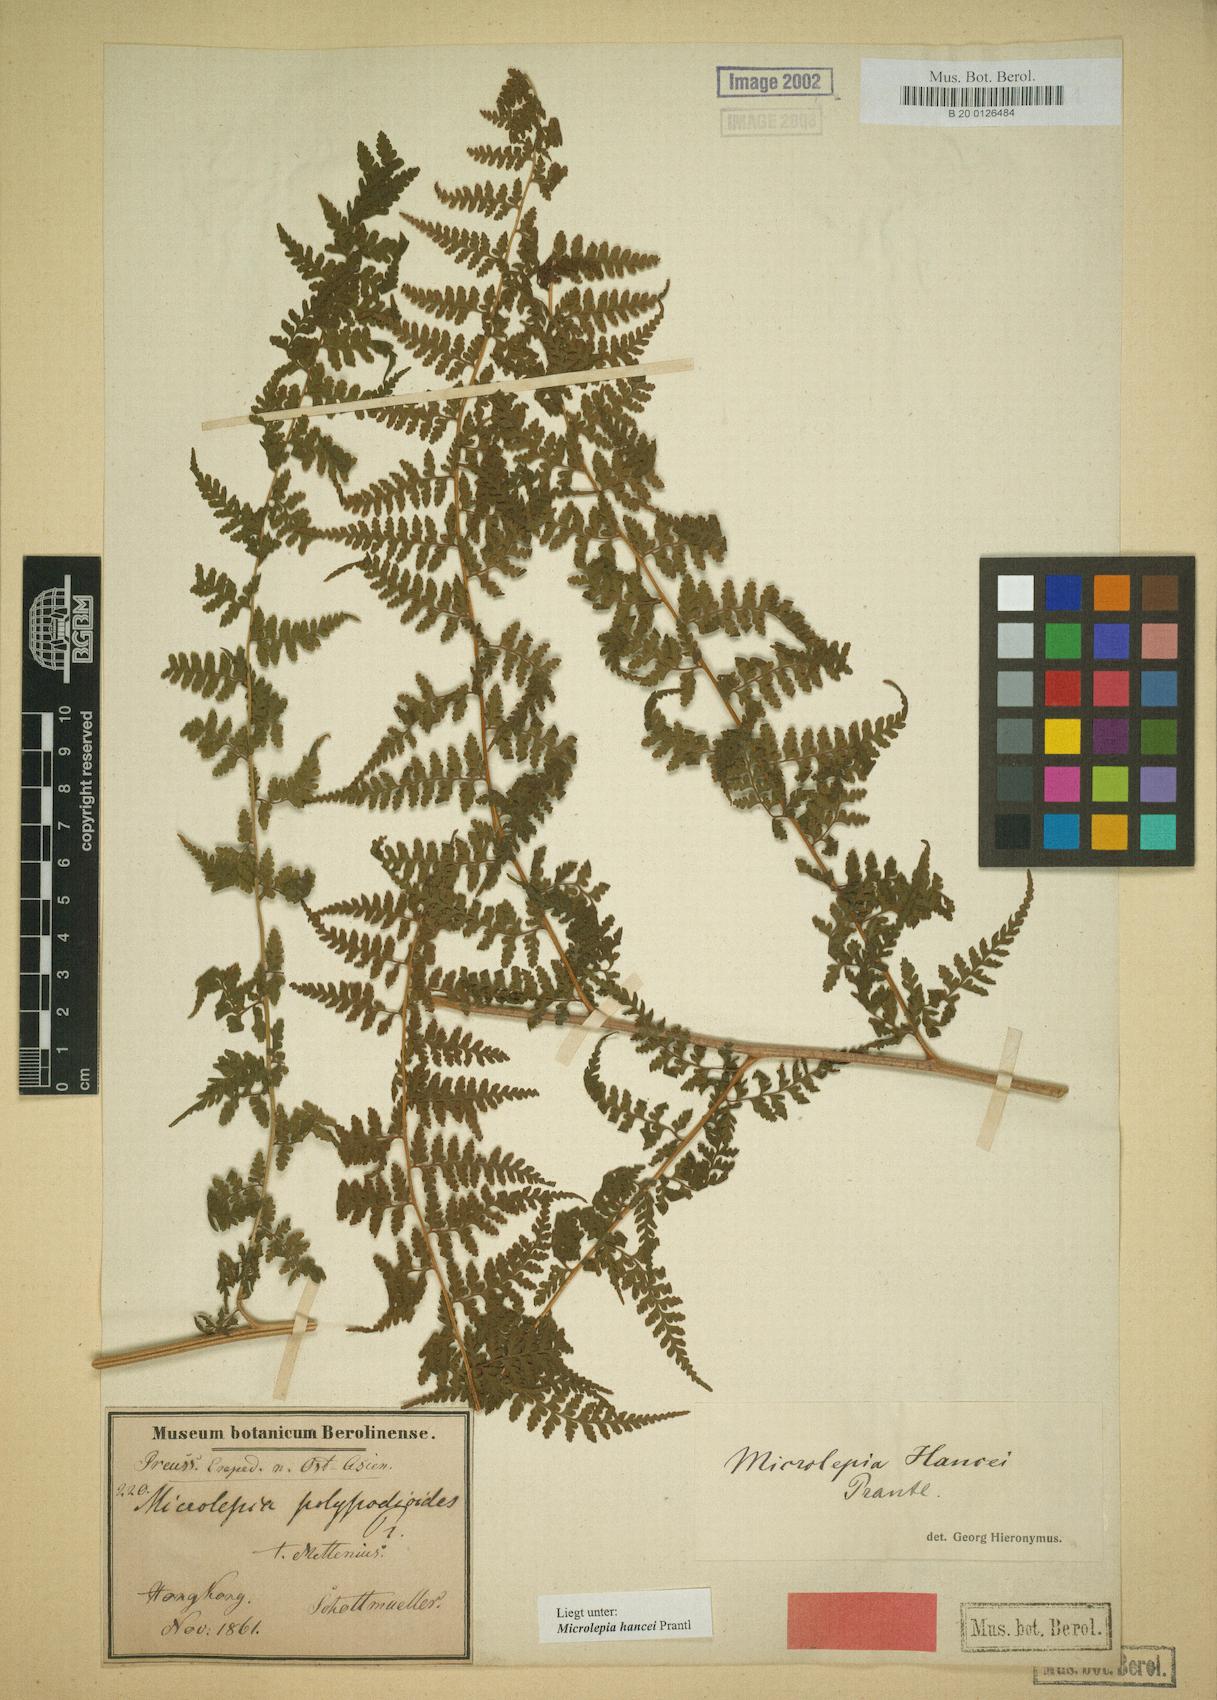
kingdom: Plantae
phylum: Tracheophyta
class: Polypodiopsida
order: Polypodiales
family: Dennstaedtiaceae
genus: Microlepia
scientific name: Microlepia nepalensis
